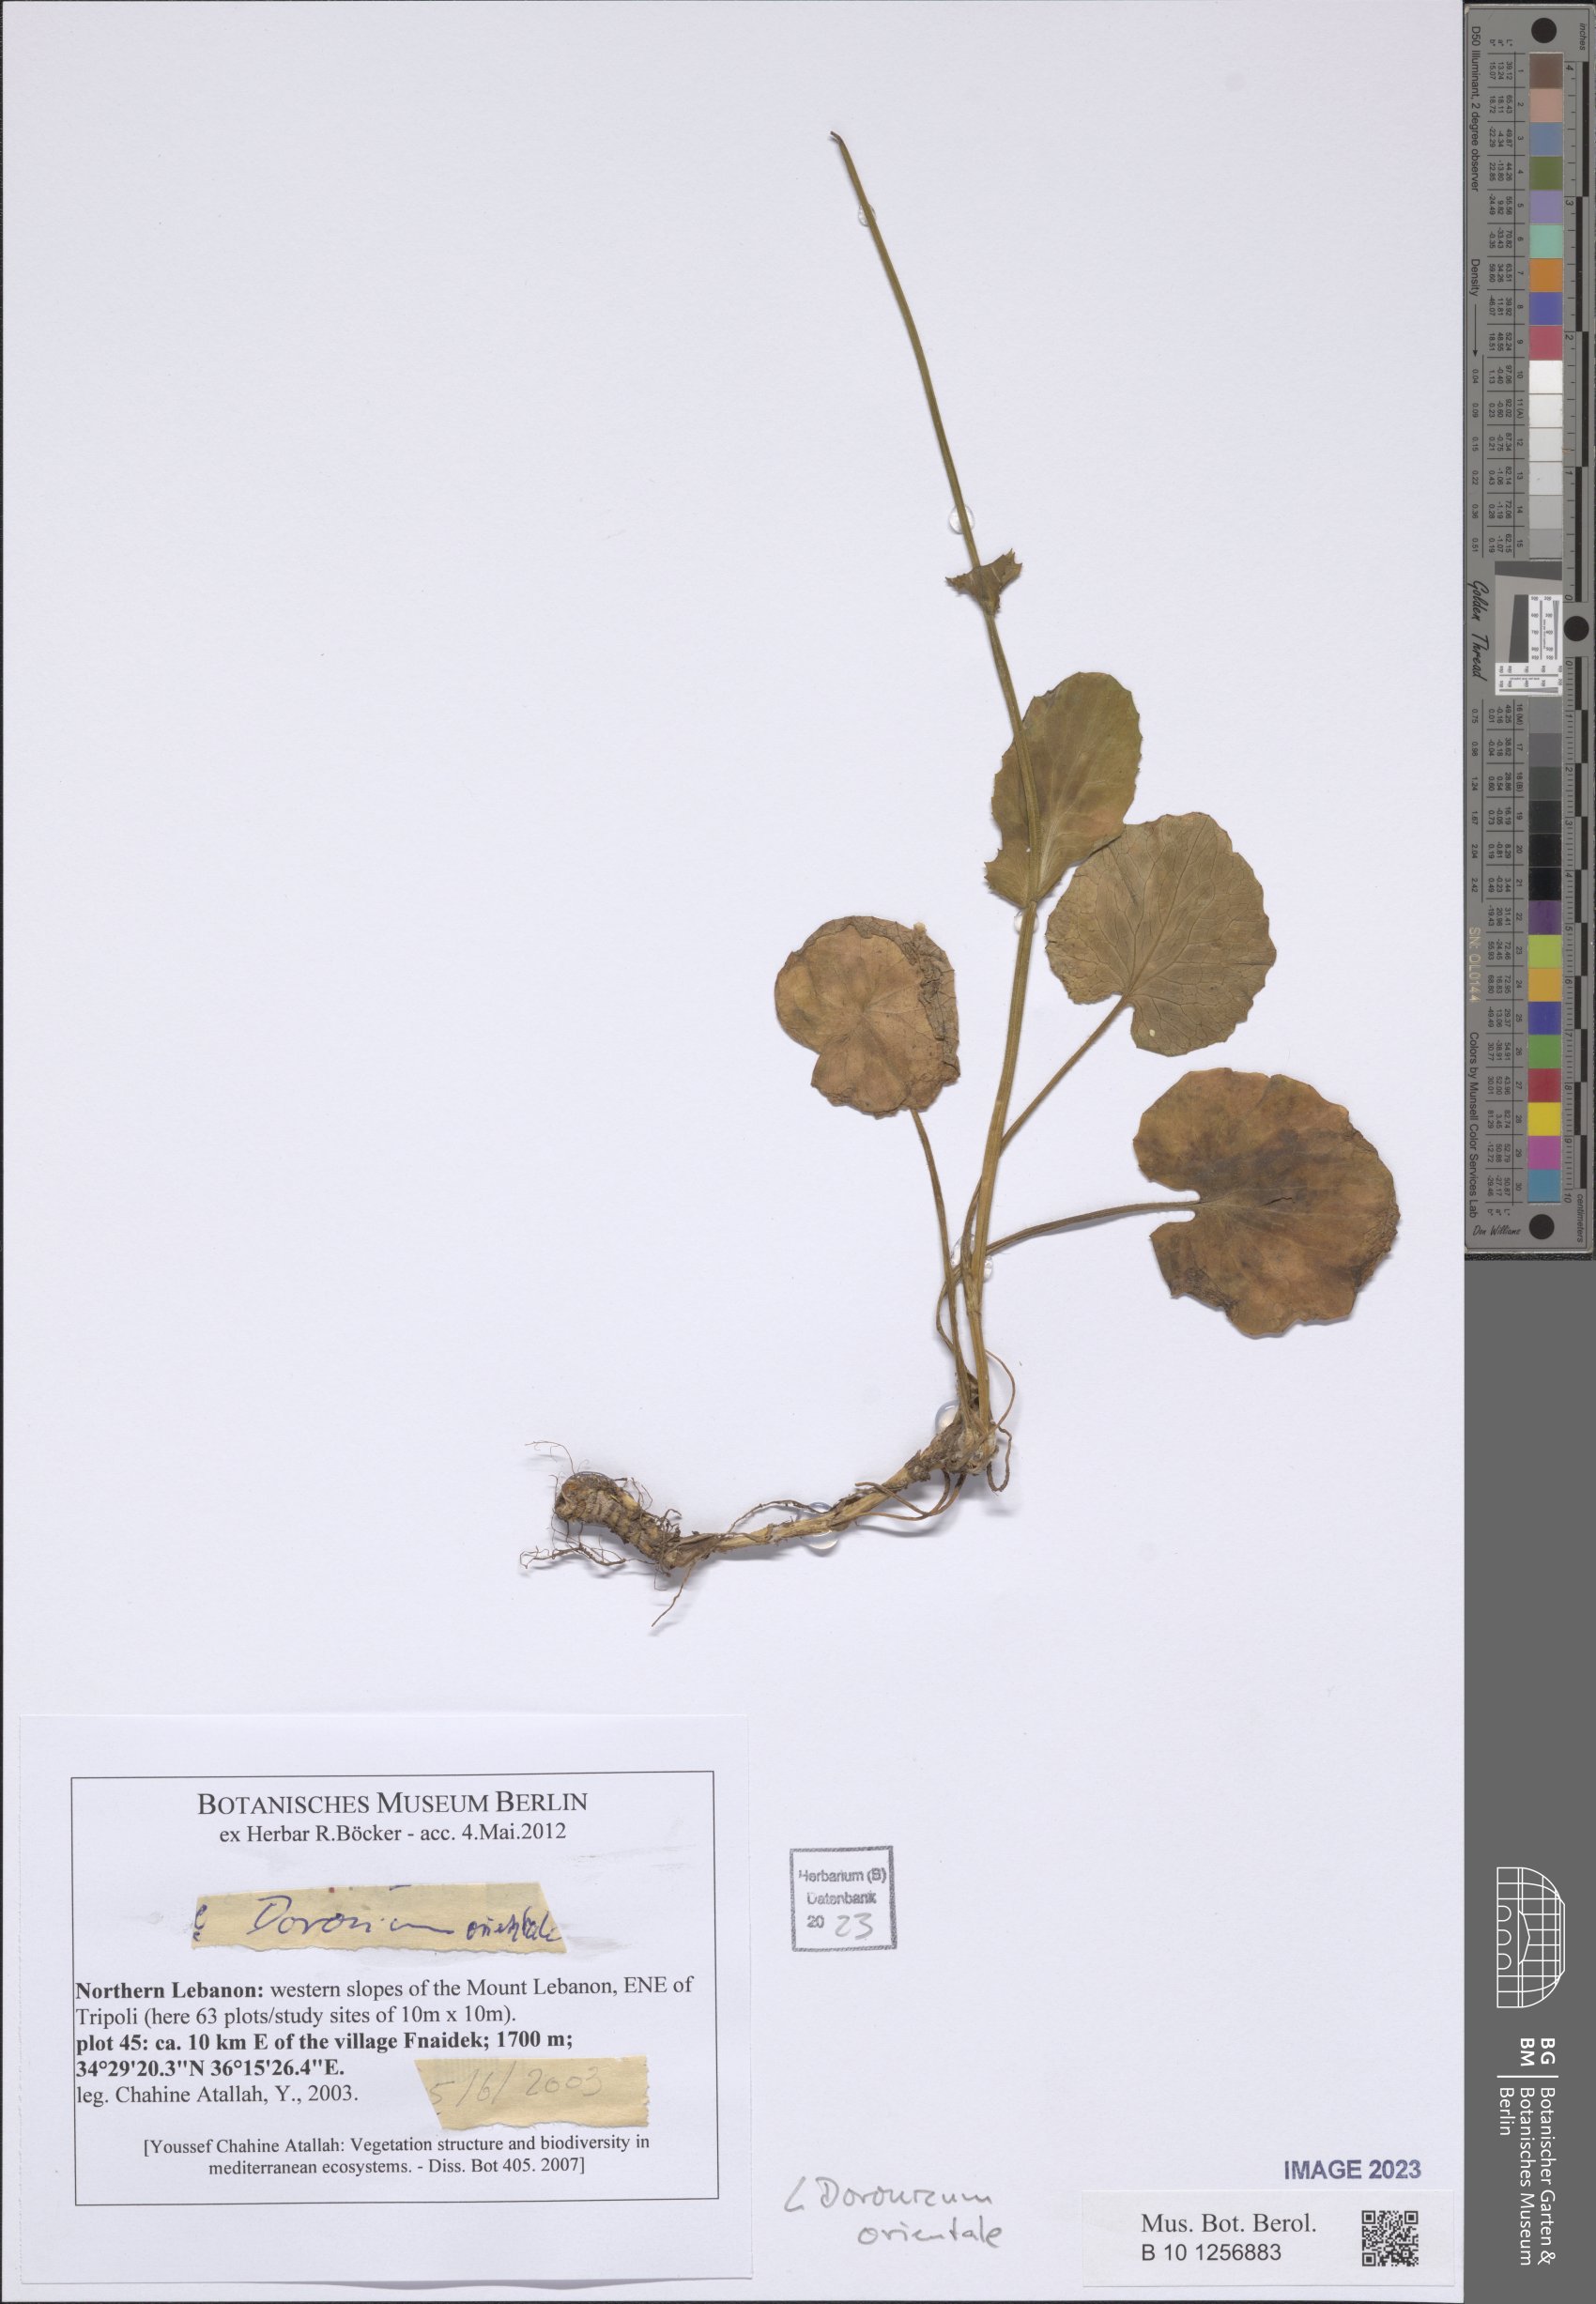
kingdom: Plantae
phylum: Tracheophyta
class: Magnoliopsida
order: Asterales
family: Asteraceae
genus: Doronicum
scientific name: Doronicum orientale
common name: Oriental leopard's-bane
